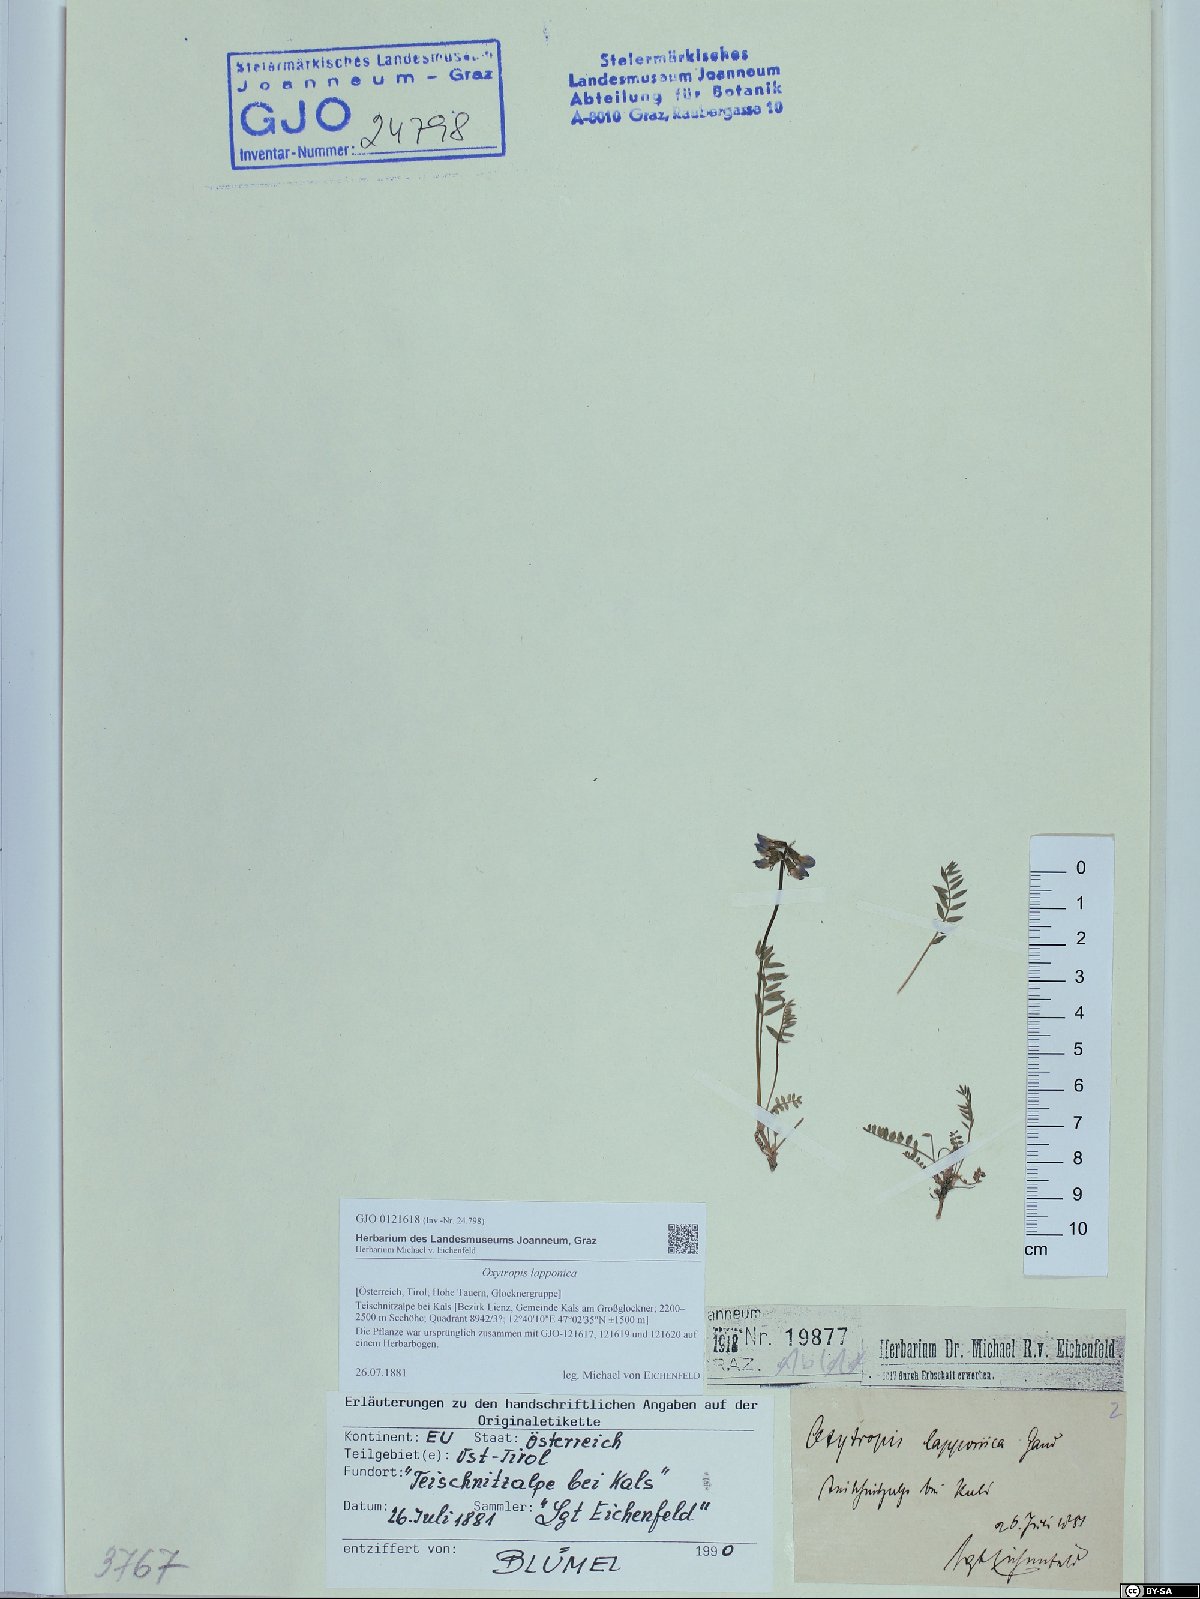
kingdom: Plantae
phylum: Tracheophyta
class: Magnoliopsida
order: Fabales
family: Fabaceae
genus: Oxytropis
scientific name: Oxytropis lapponica
